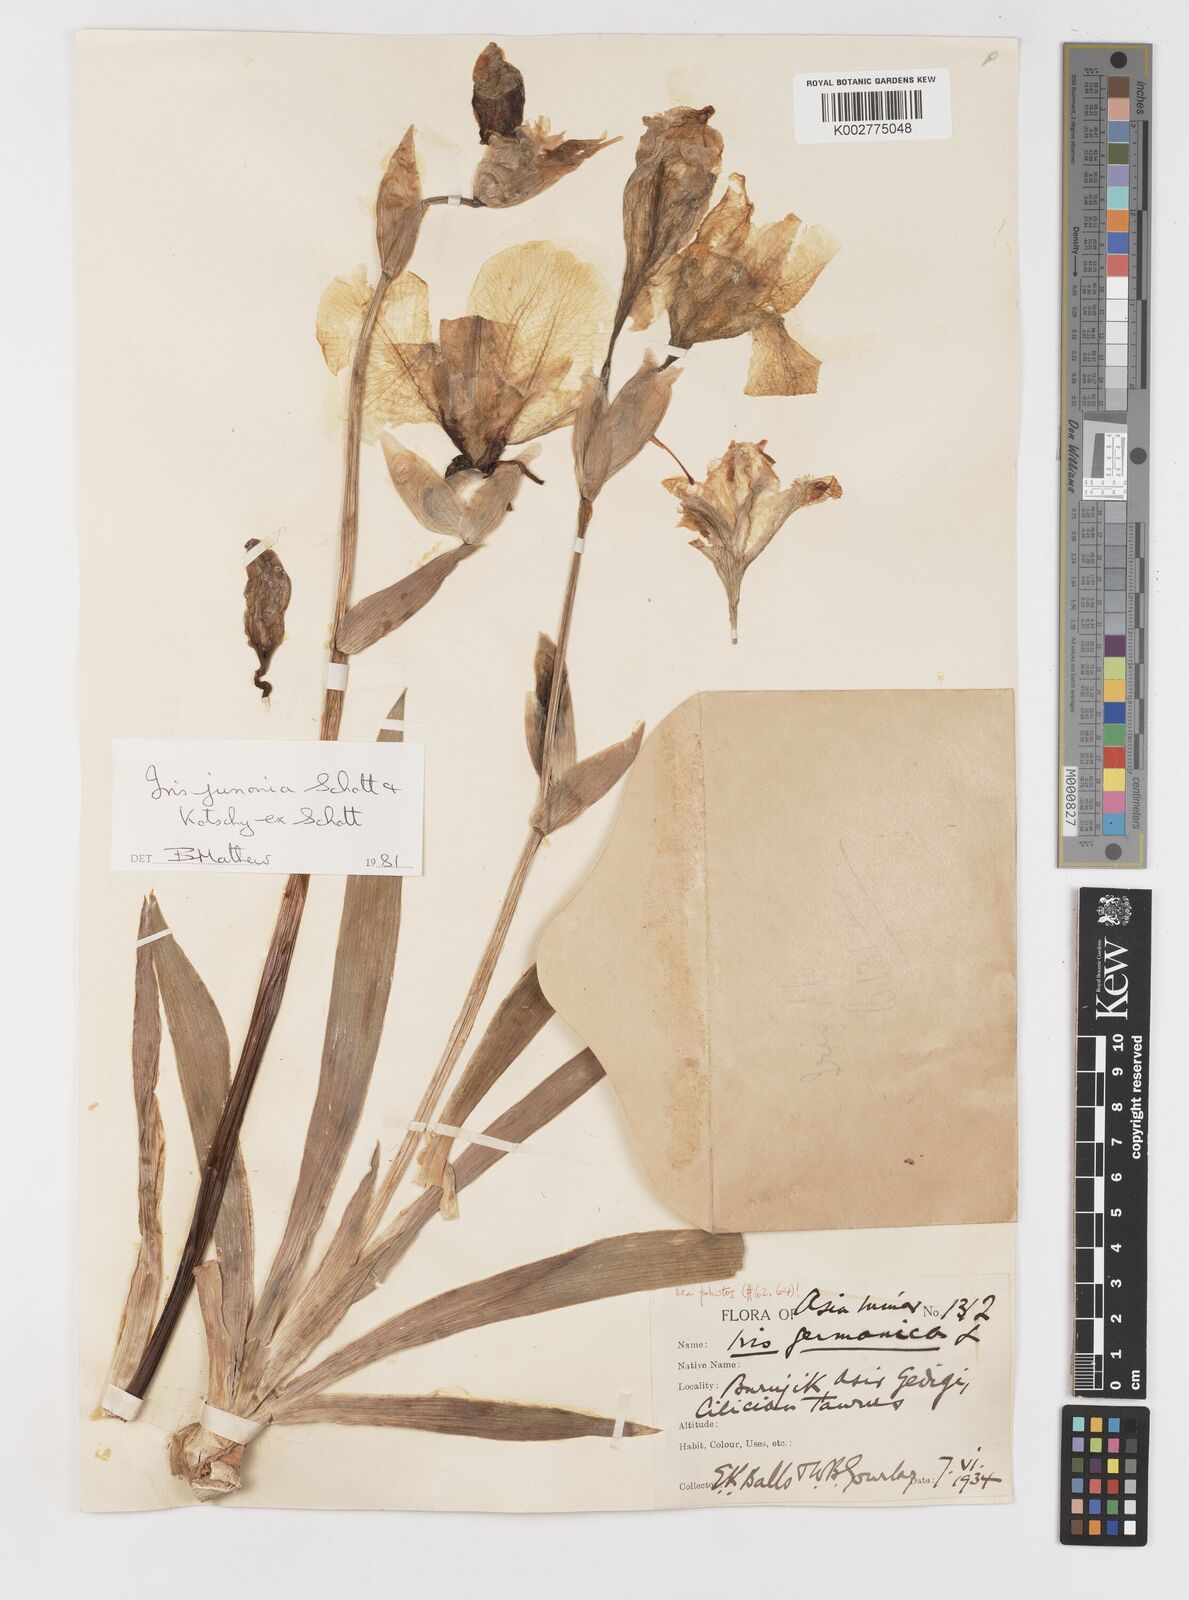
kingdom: Plantae
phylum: Tracheophyta
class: Liliopsida
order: Asparagales
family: Iridaceae
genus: Iris
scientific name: Iris junonia
